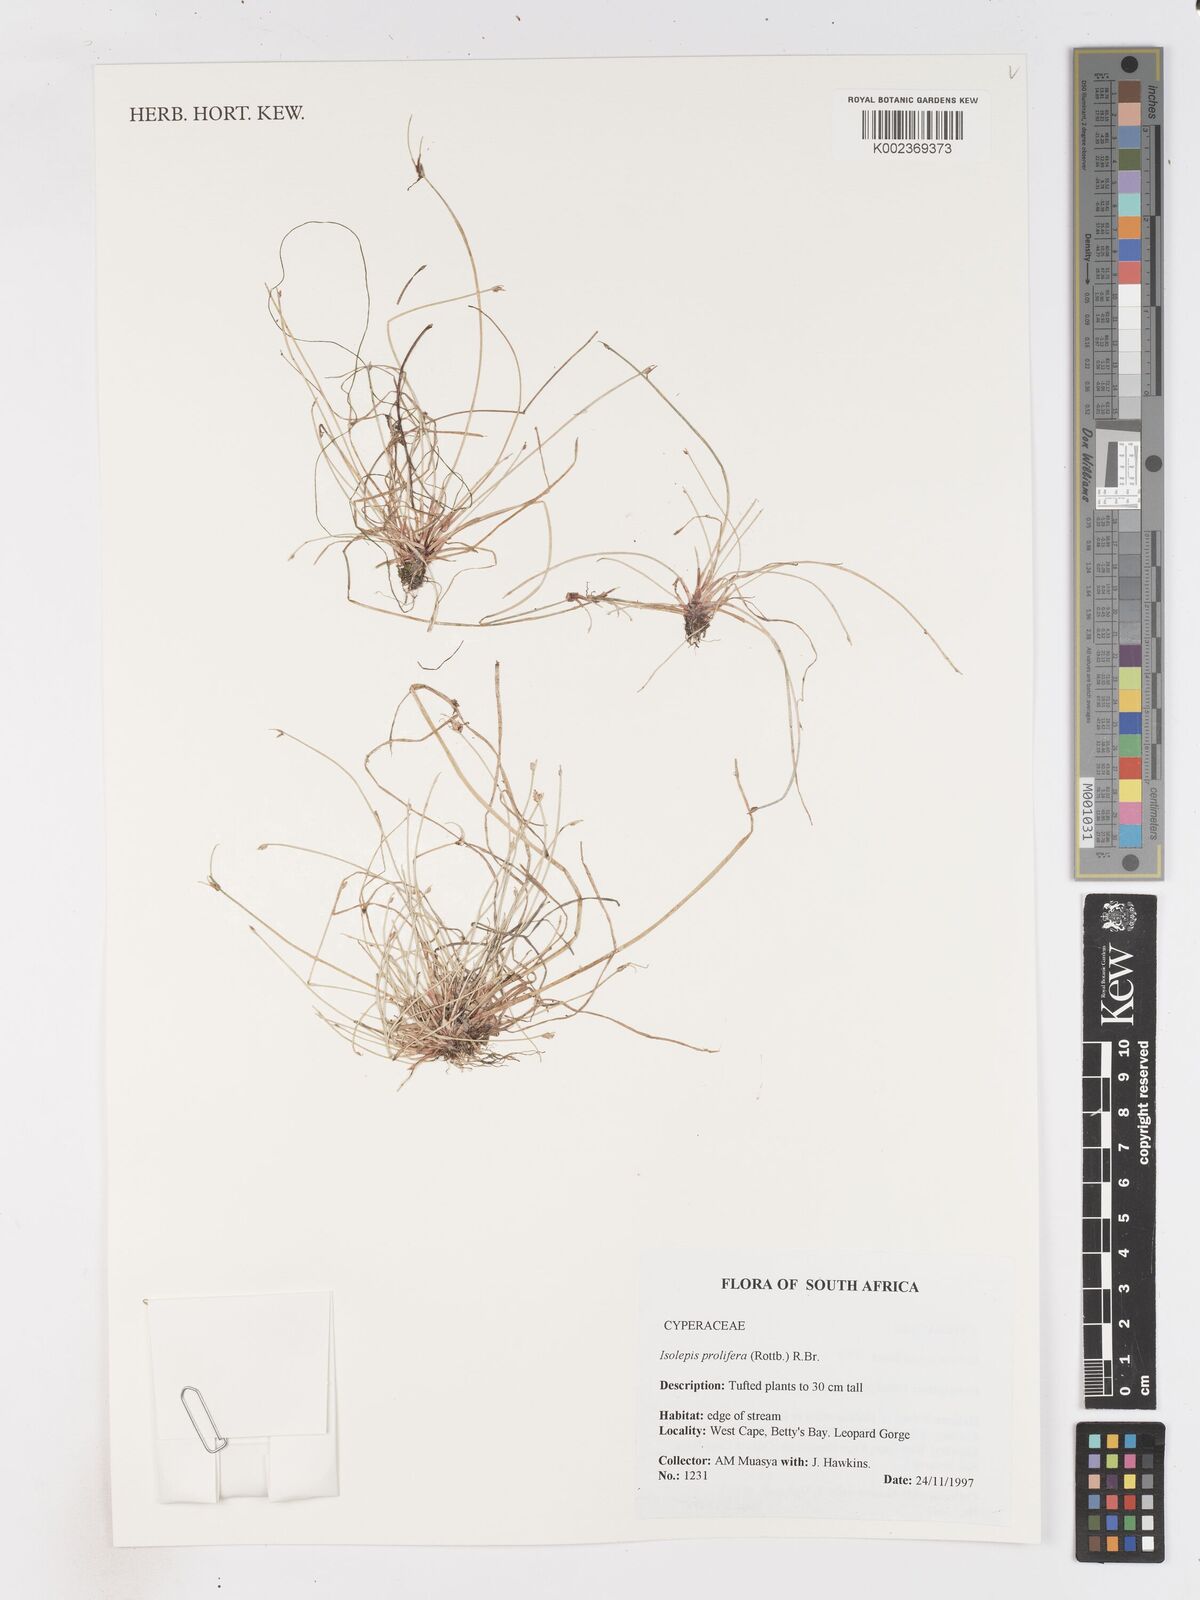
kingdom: Plantae
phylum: Tracheophyta
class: Liliopsida
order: Poales
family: Cyperaceae
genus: Isolepis
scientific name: Isolepis prolifera
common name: Proliferating bulrush
